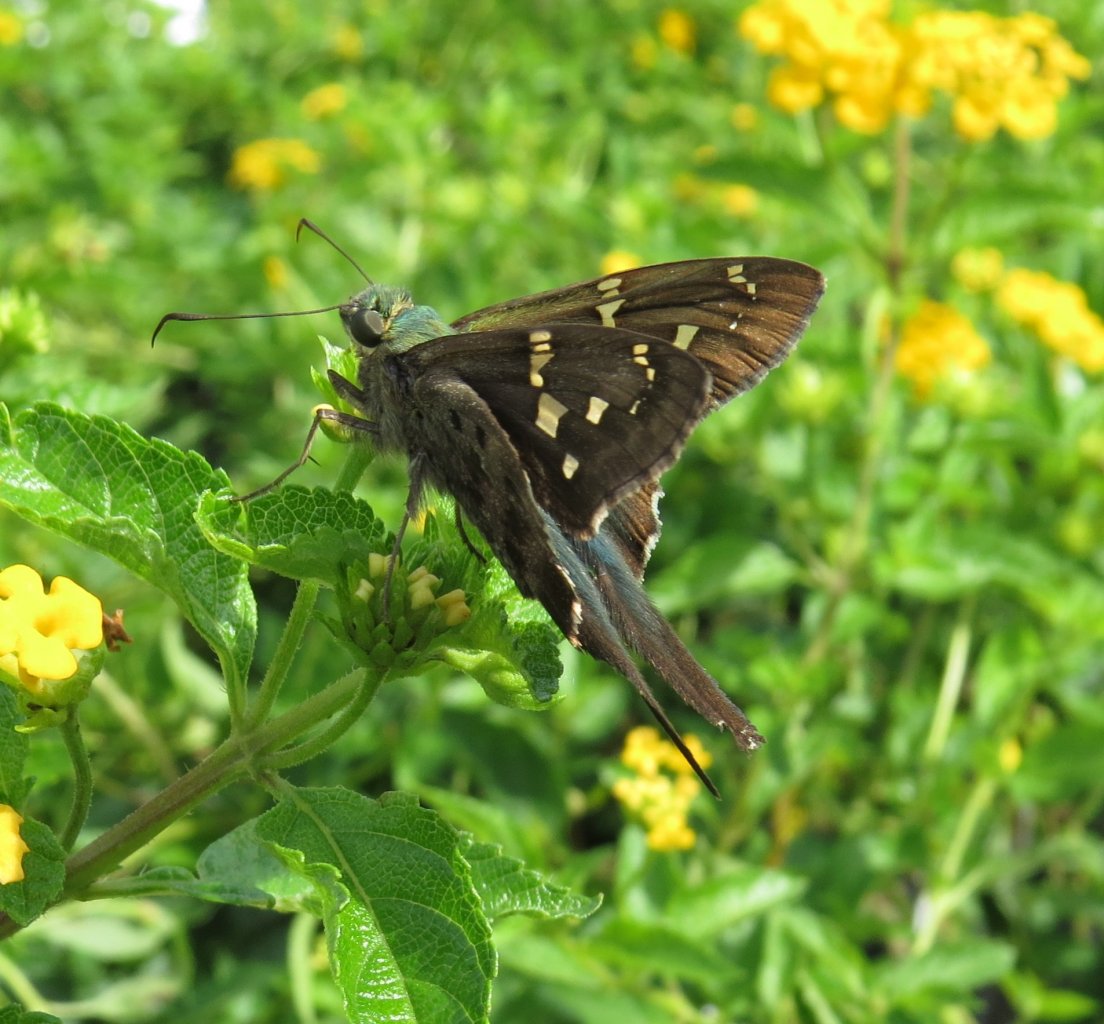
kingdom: Animalia
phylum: Arthropoda
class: Insecta
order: Lepidoptera
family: Hesperiidae
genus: Urbanus
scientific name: Urbanus proteus
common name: Long-tailed Skipper
